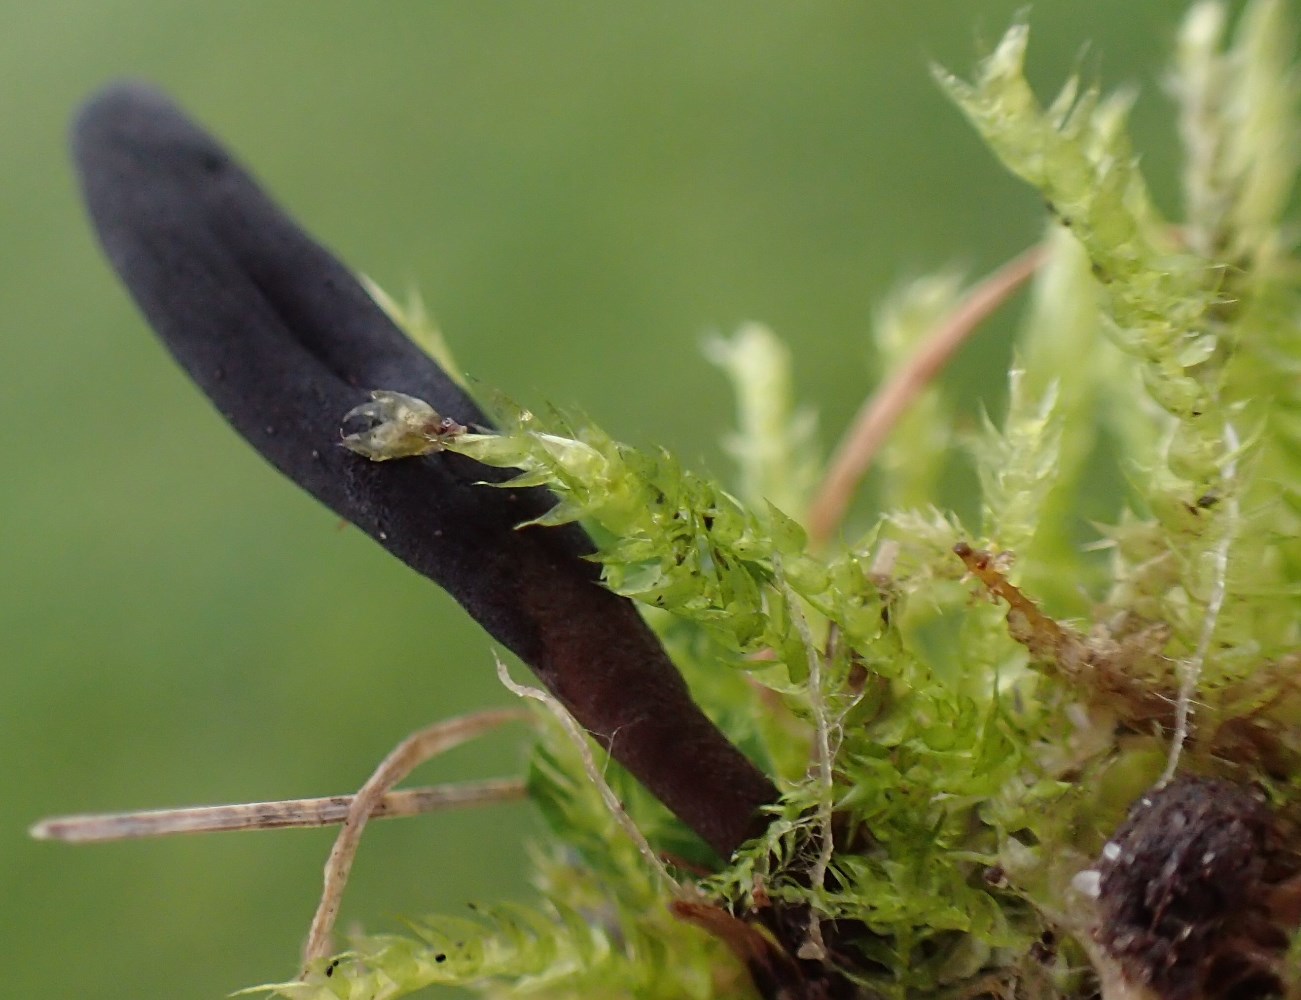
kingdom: Fungi
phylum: Ascomycota
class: Geoglossomycetes
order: Geoglossales
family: Geoglossaceae
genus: Geoglossum
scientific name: Geoglossum umbratile
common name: slank jordtunge
